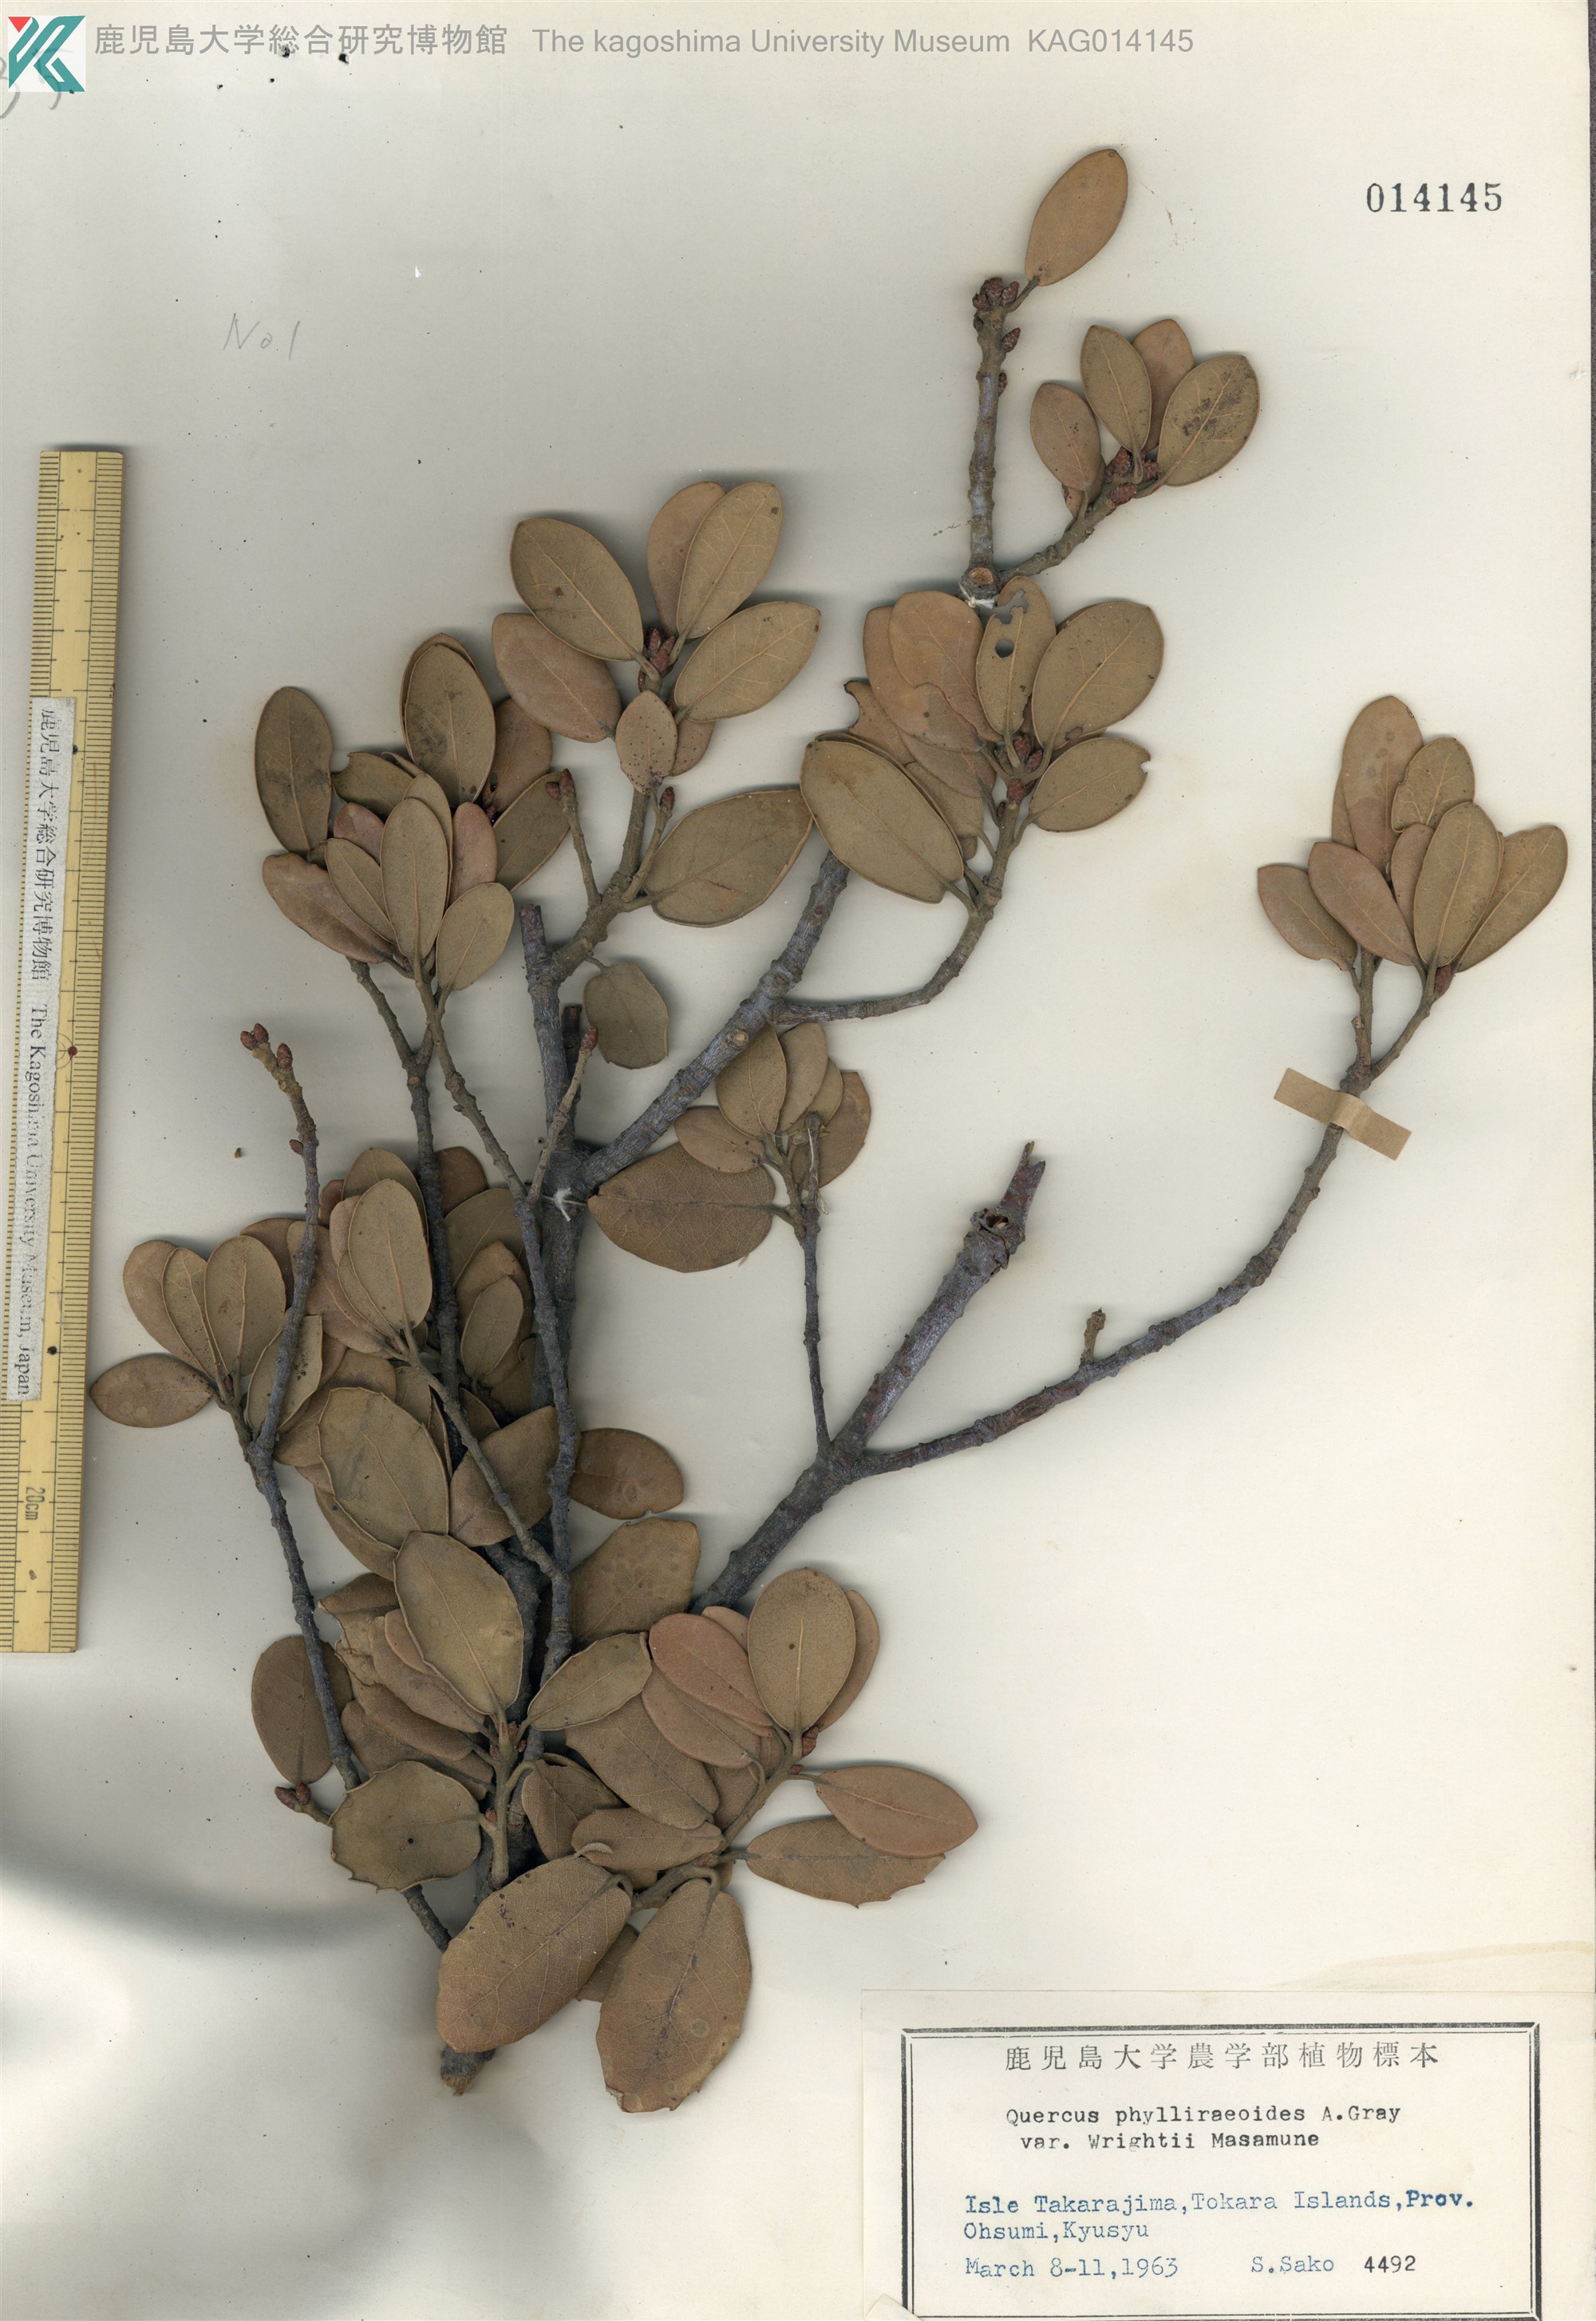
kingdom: Plantae
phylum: Tracheophyta
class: Magnoliopsida
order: Fagales
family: Fagaceae
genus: Quercus
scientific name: Quercus phillyreoides
